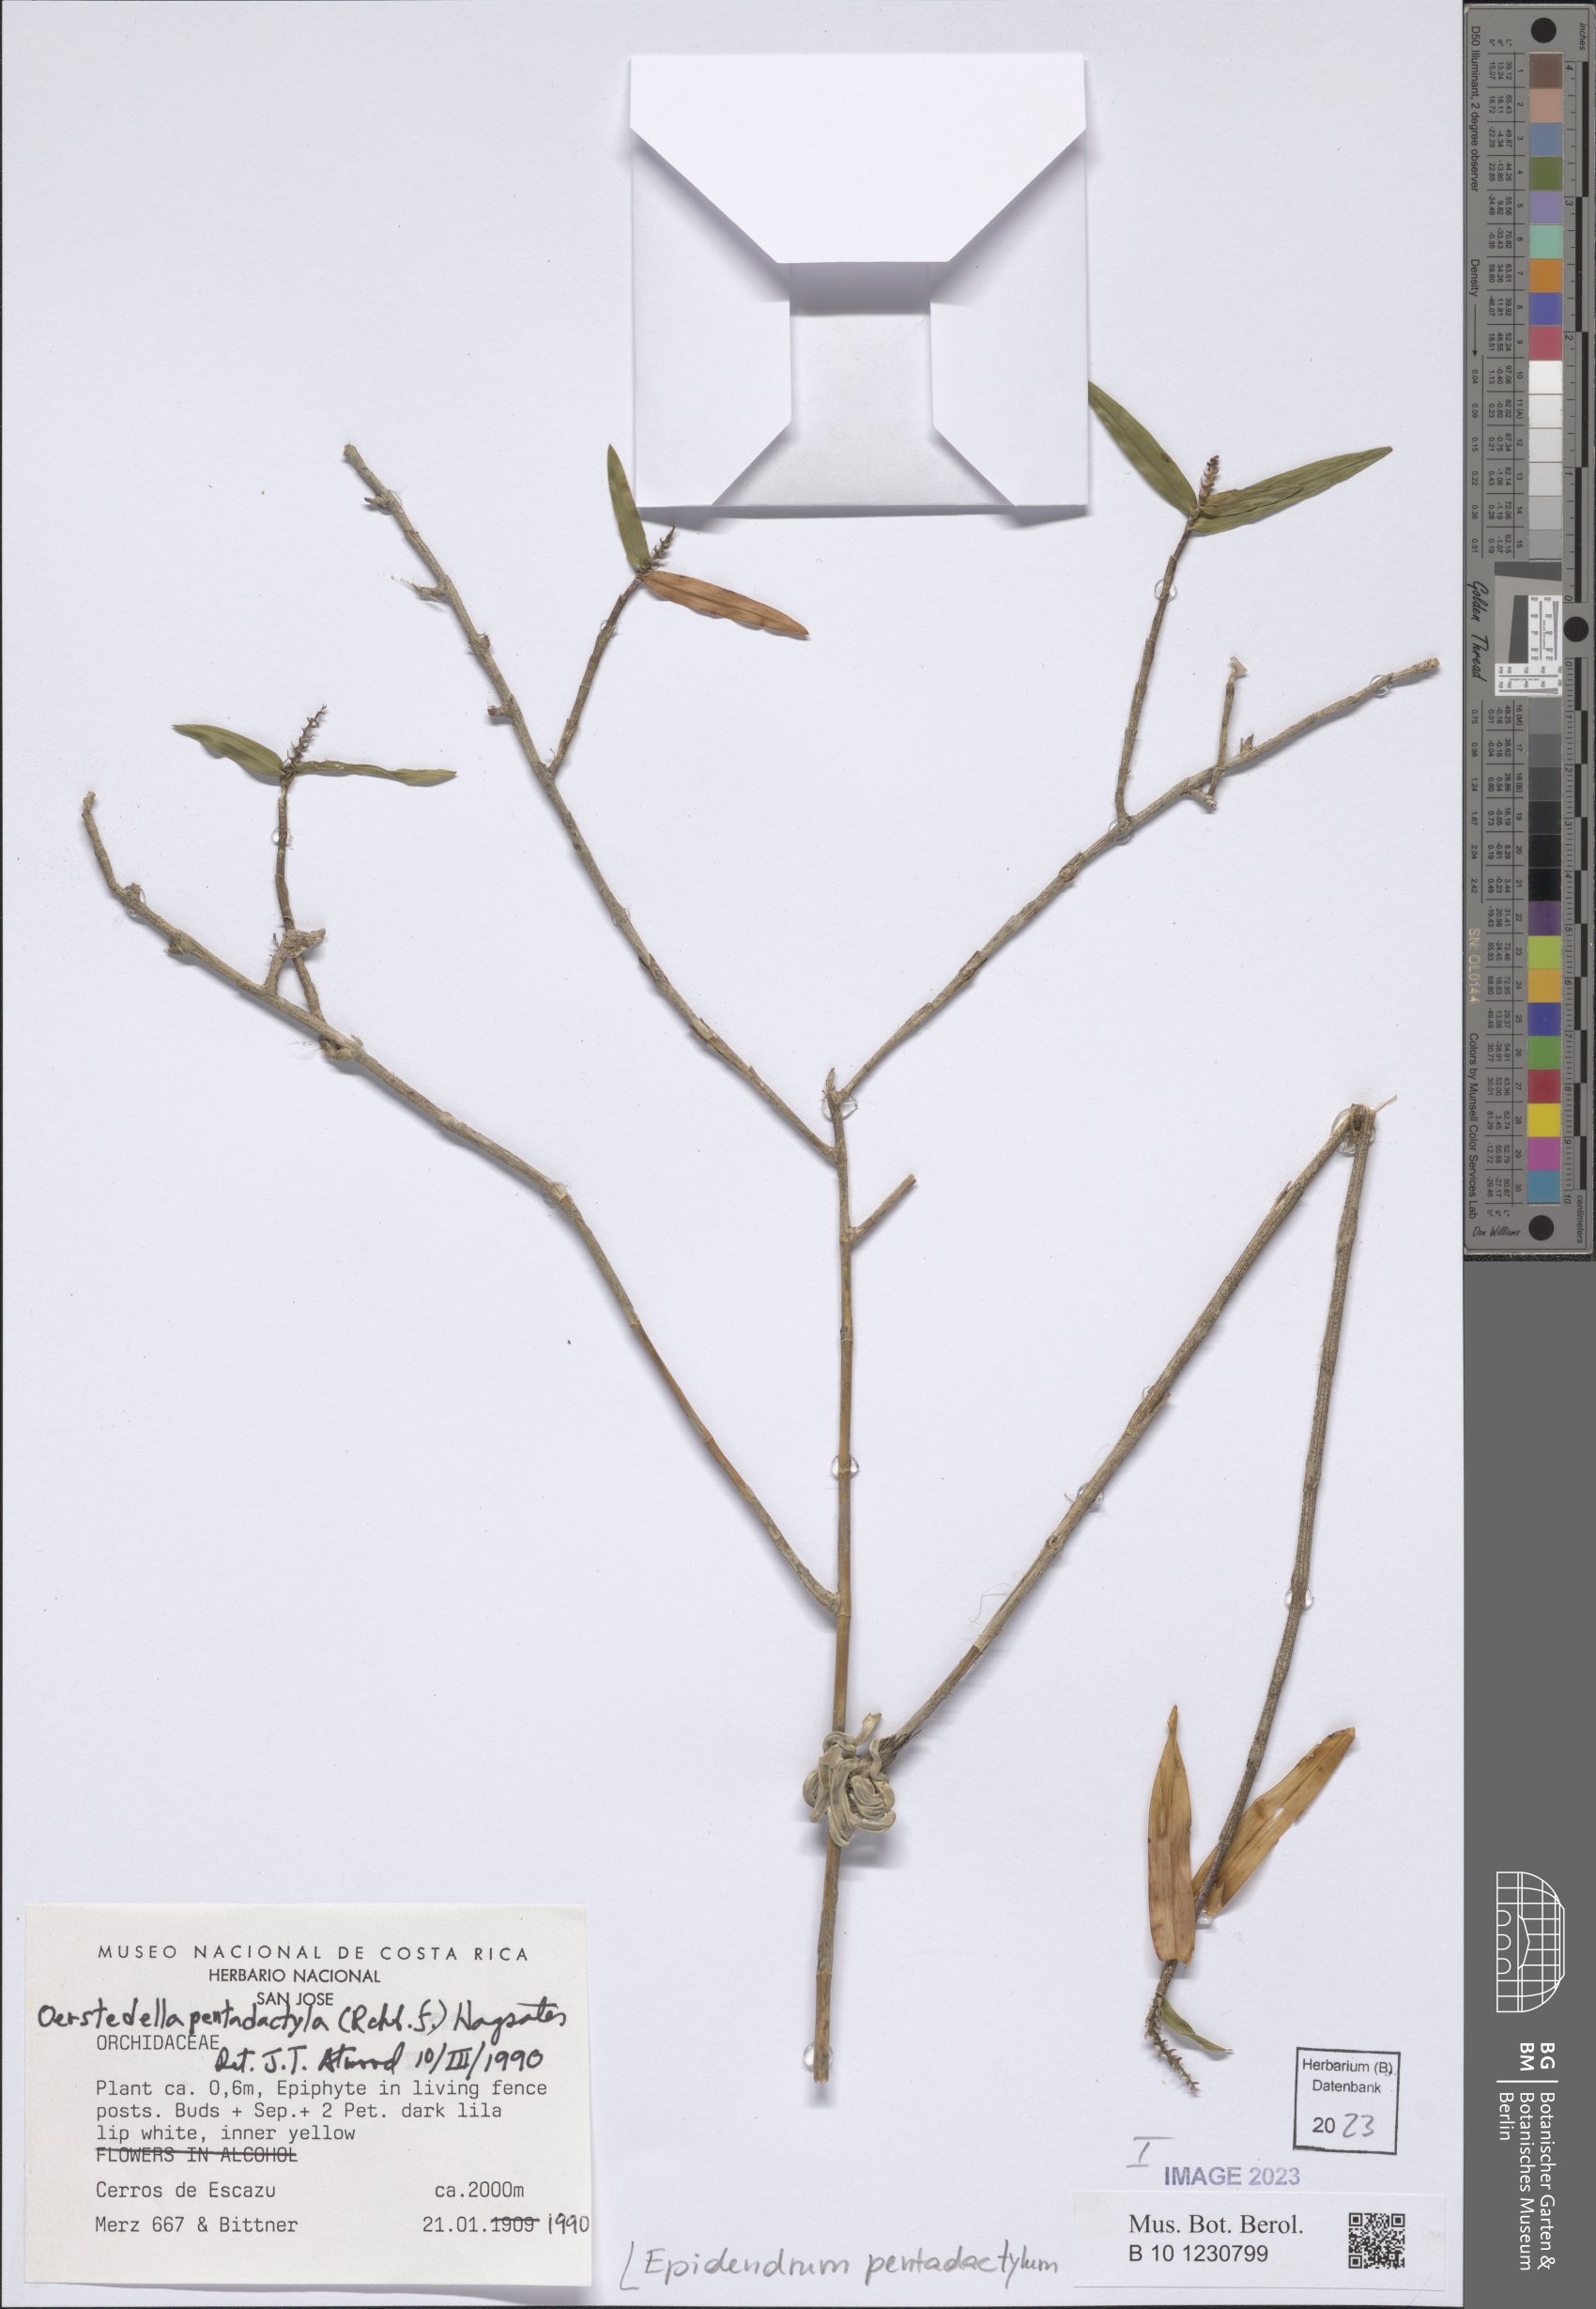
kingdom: Plantae
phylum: Tracheophyta
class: Liliopsida
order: Asparagales
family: Orchidaceae
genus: Epidendrum
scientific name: Epidendrum pentadactylum
